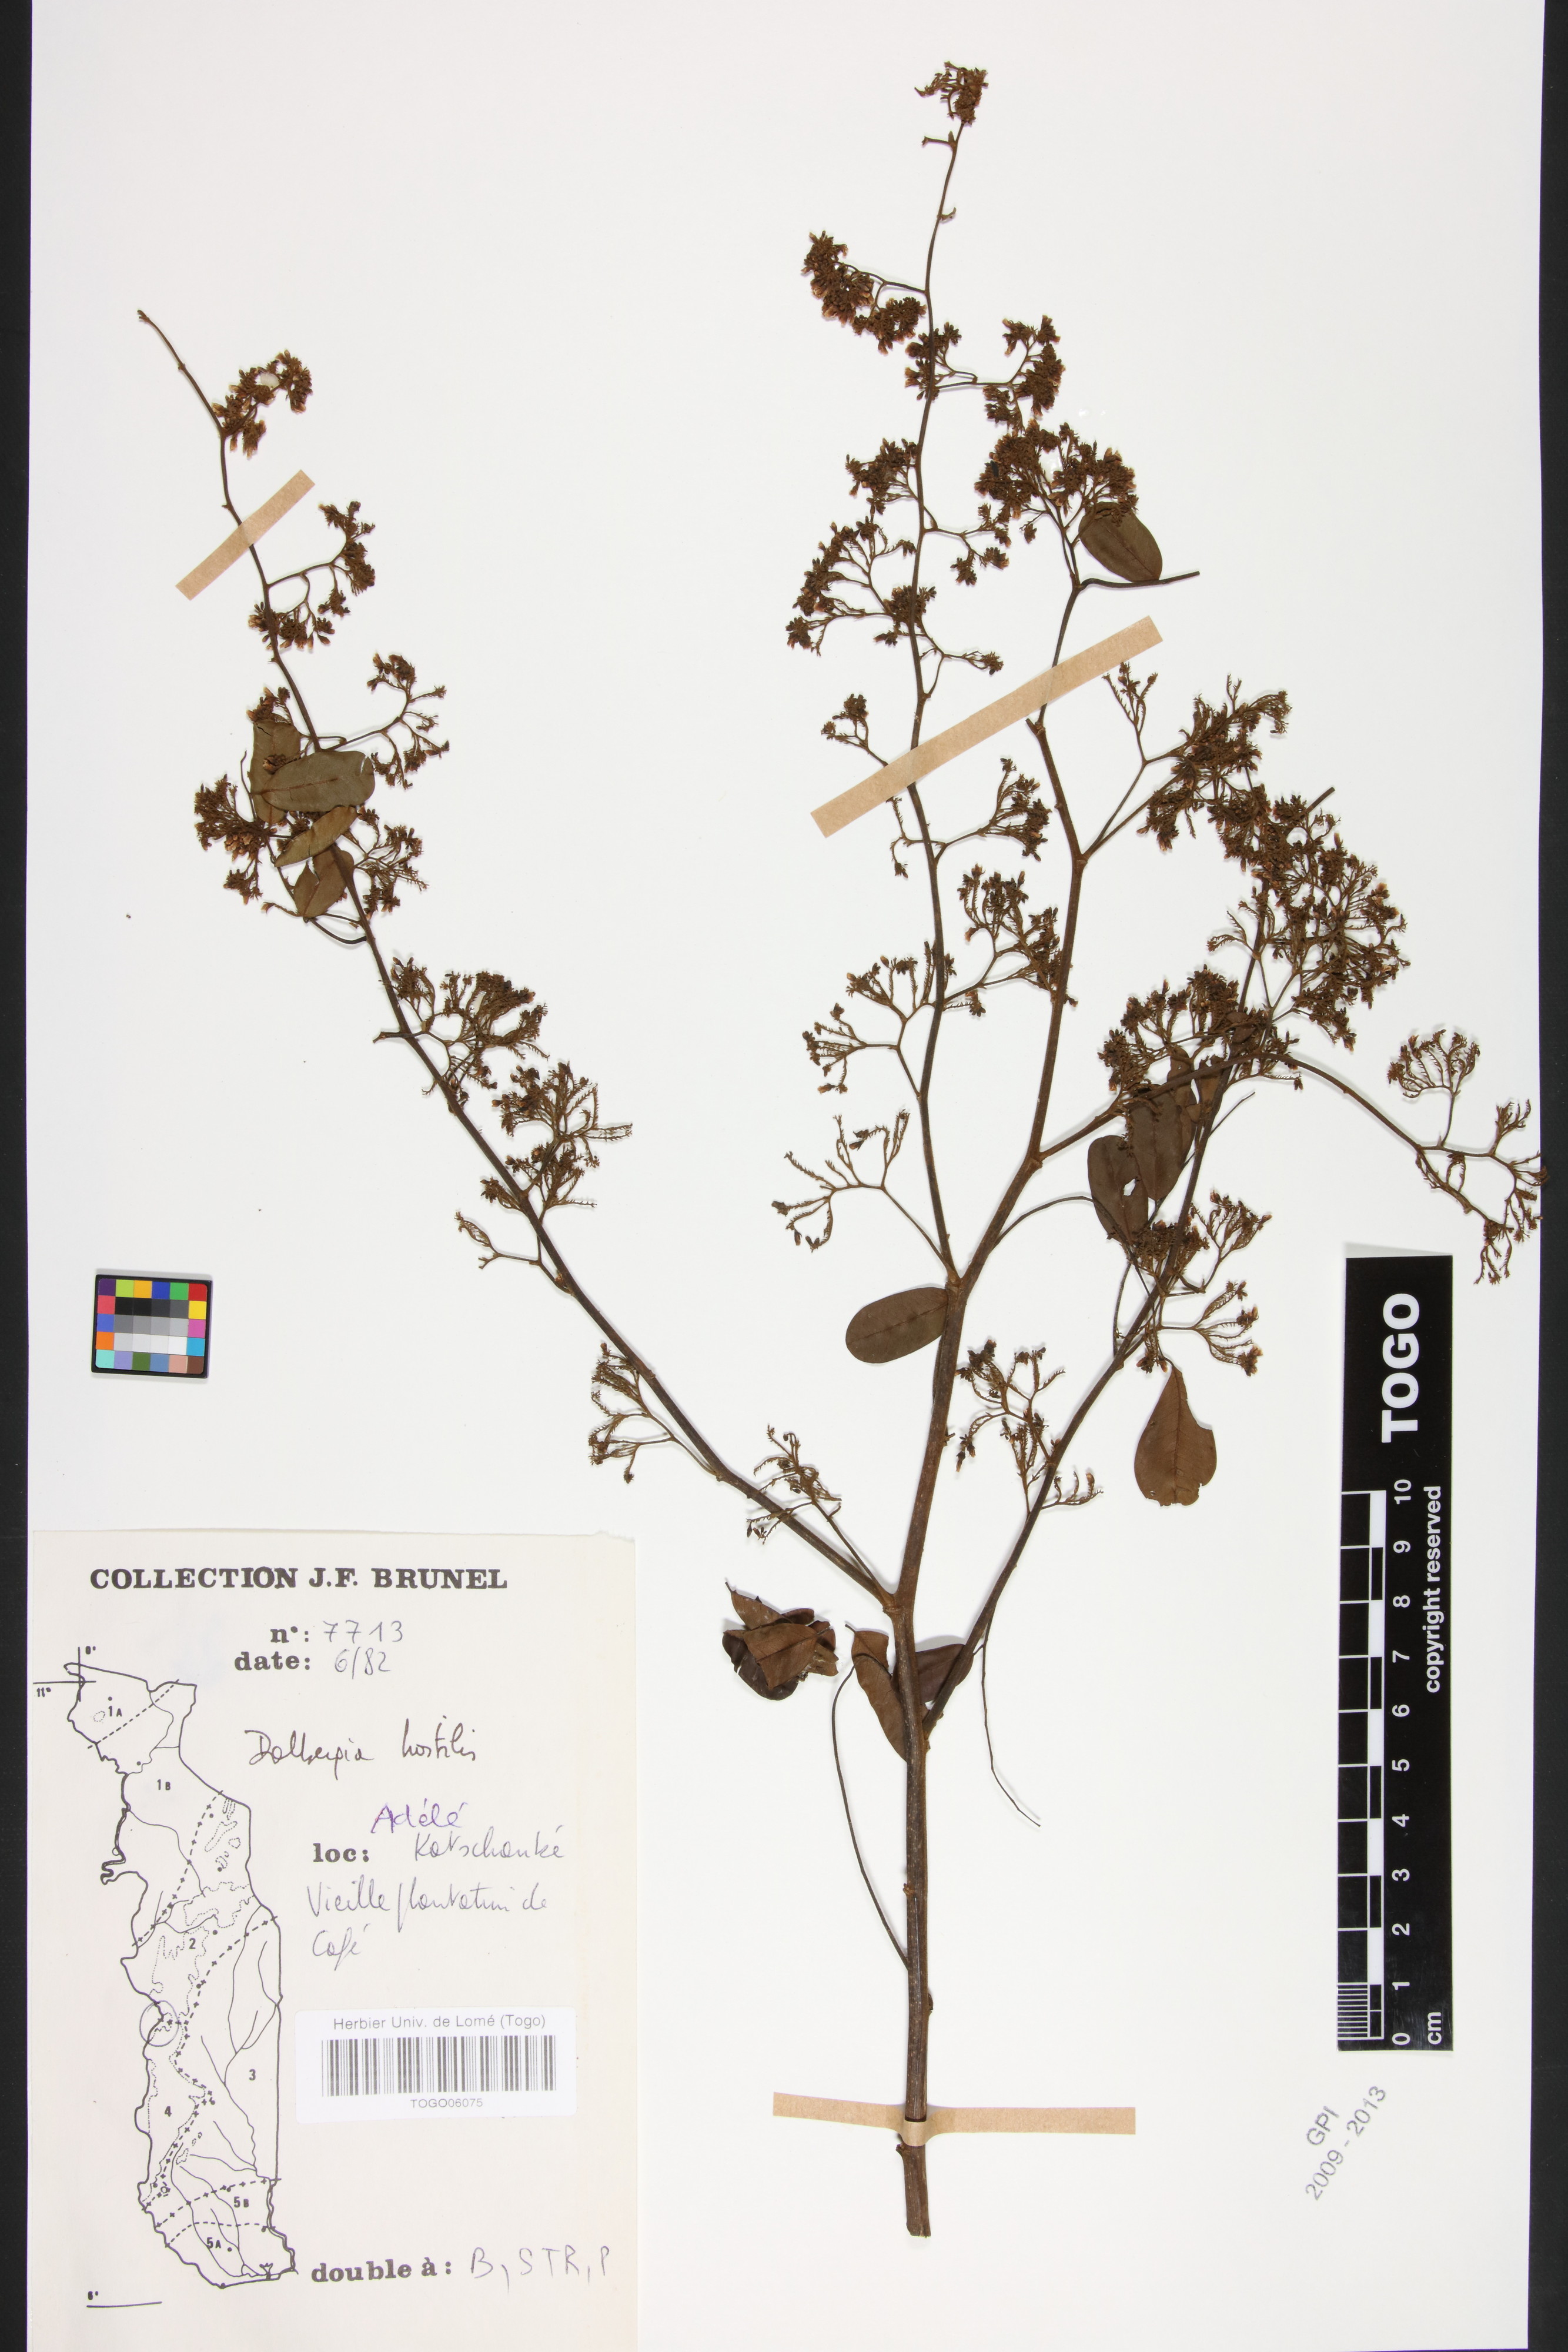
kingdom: Plantae
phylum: Tracheophyta
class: Magnoliopsida
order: Fabales
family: Fabaceae
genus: Dalbergia
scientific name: Dalbergia hostilis
